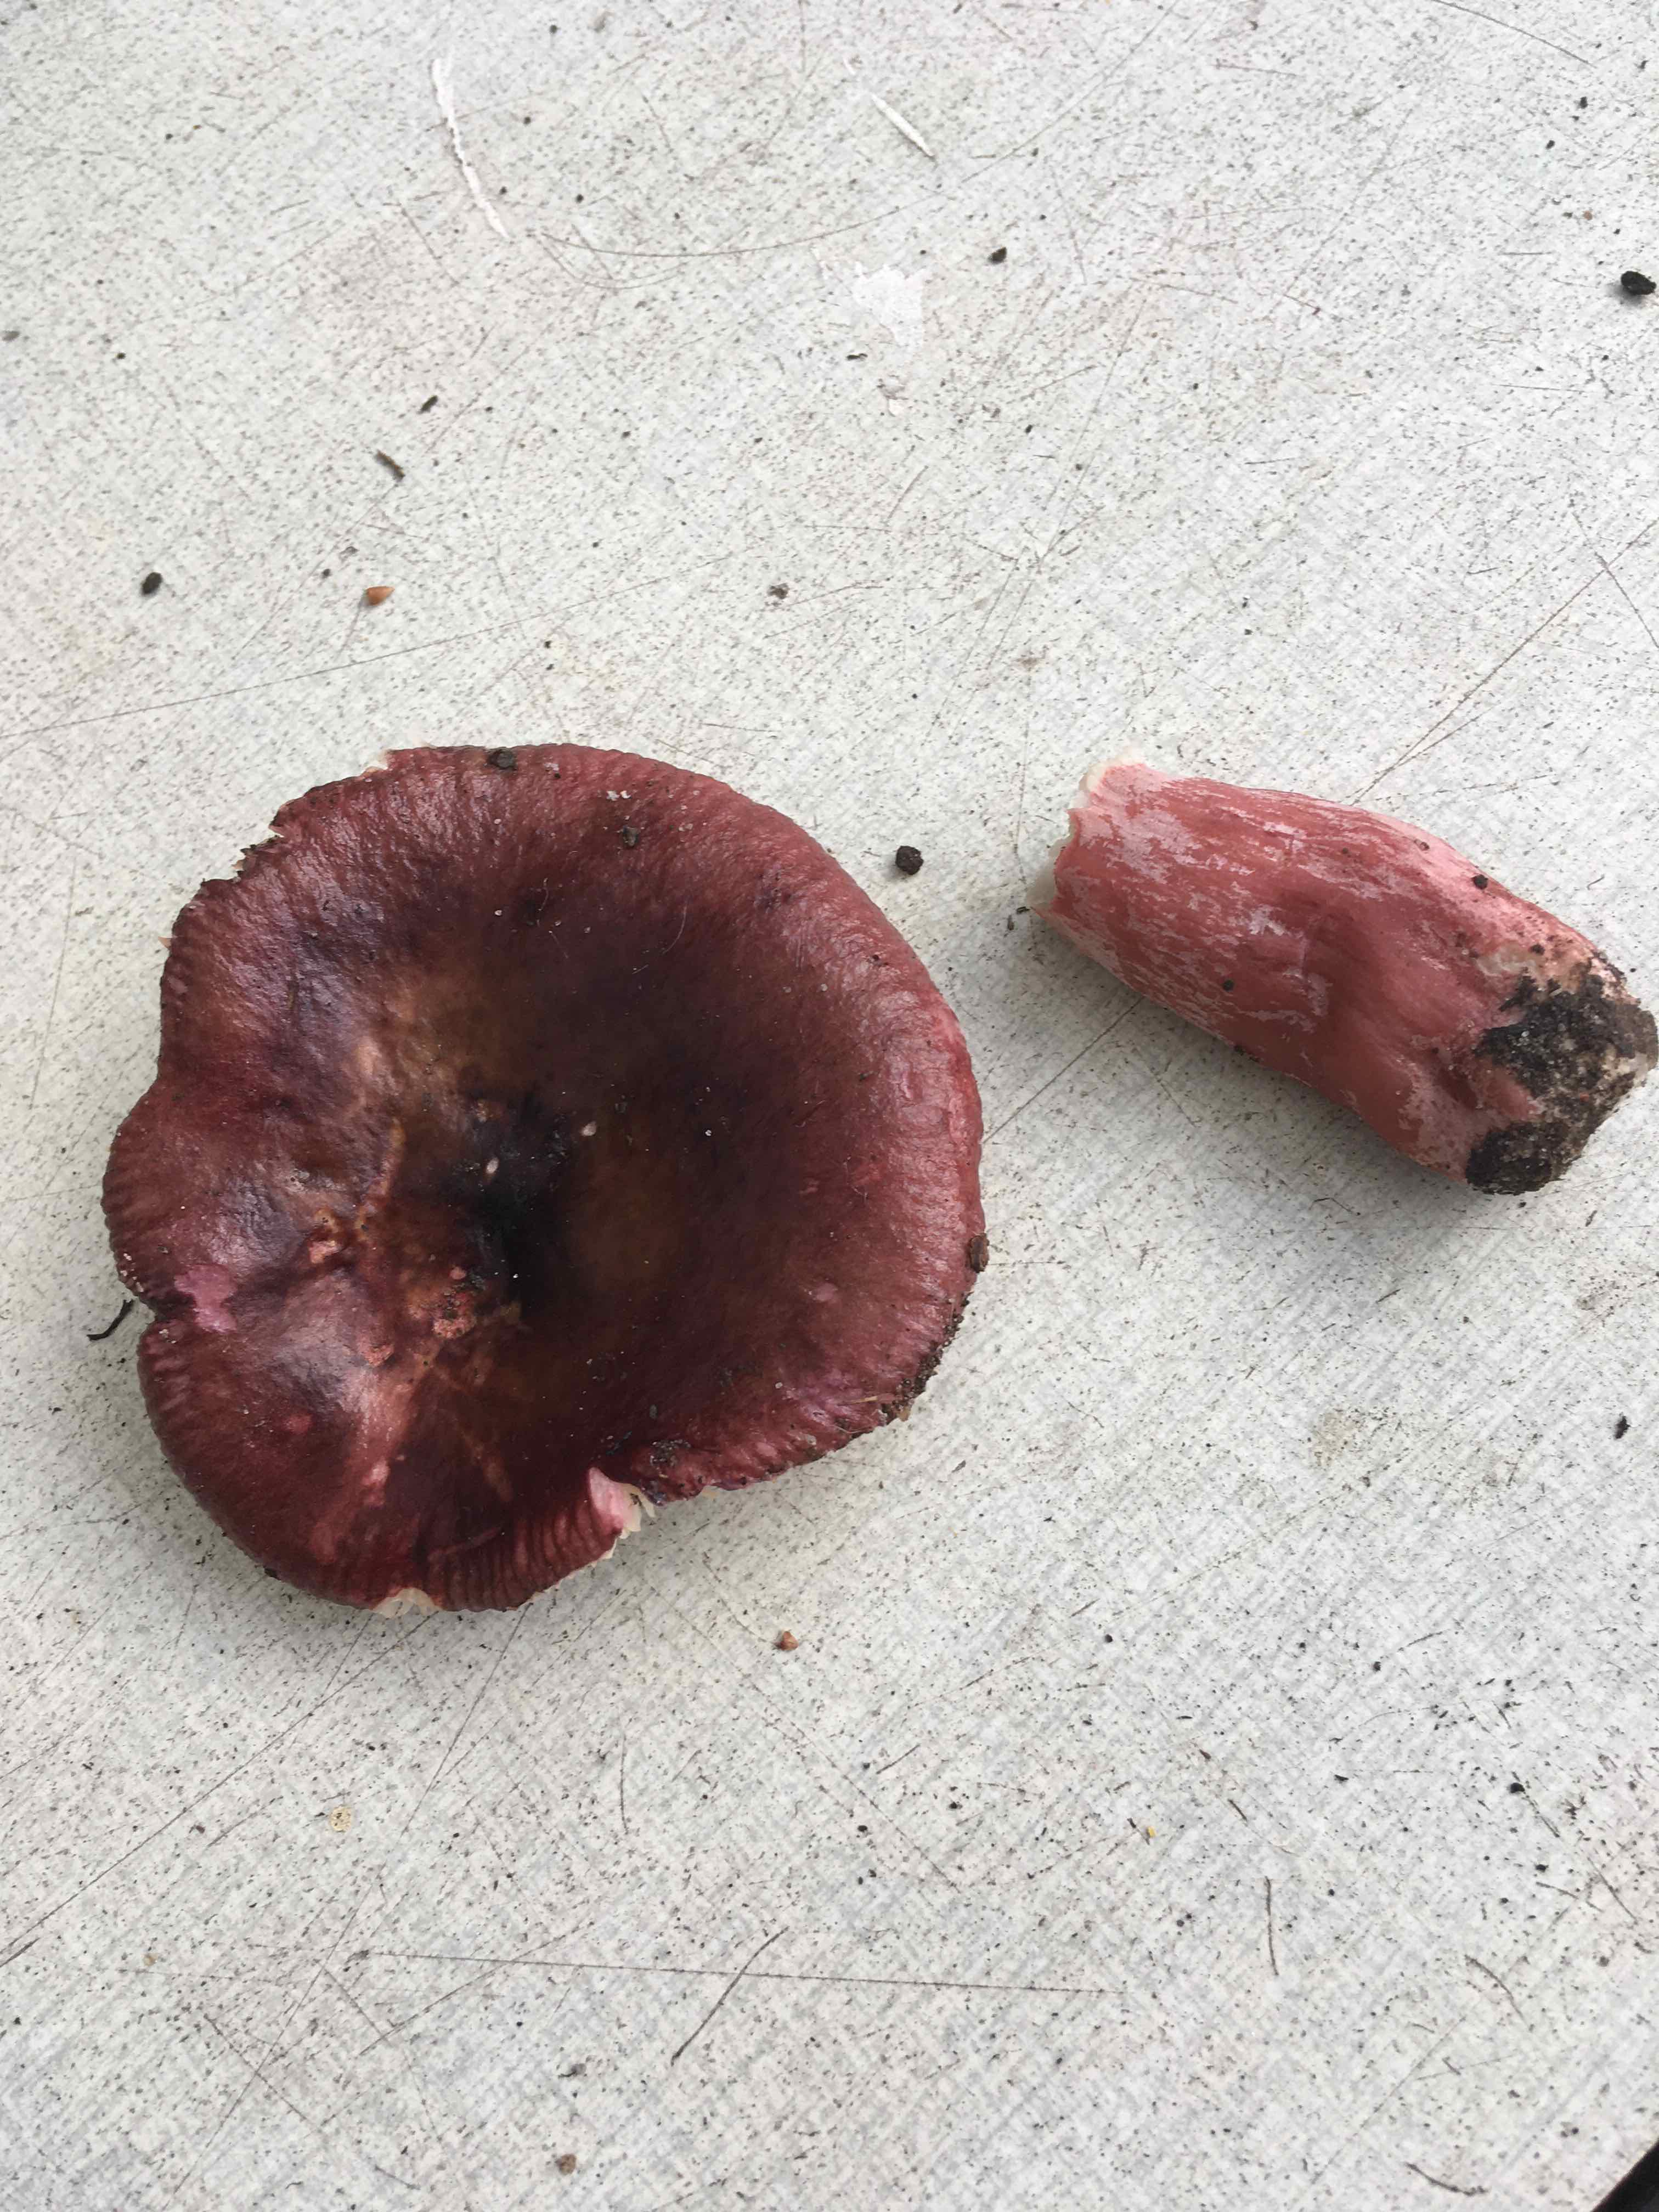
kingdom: Fungi
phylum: Basidiomycota
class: Agaricomycetes
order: Russulales
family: Russulaceae
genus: Russula
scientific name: Russula queletii
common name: Quélets skørhat
